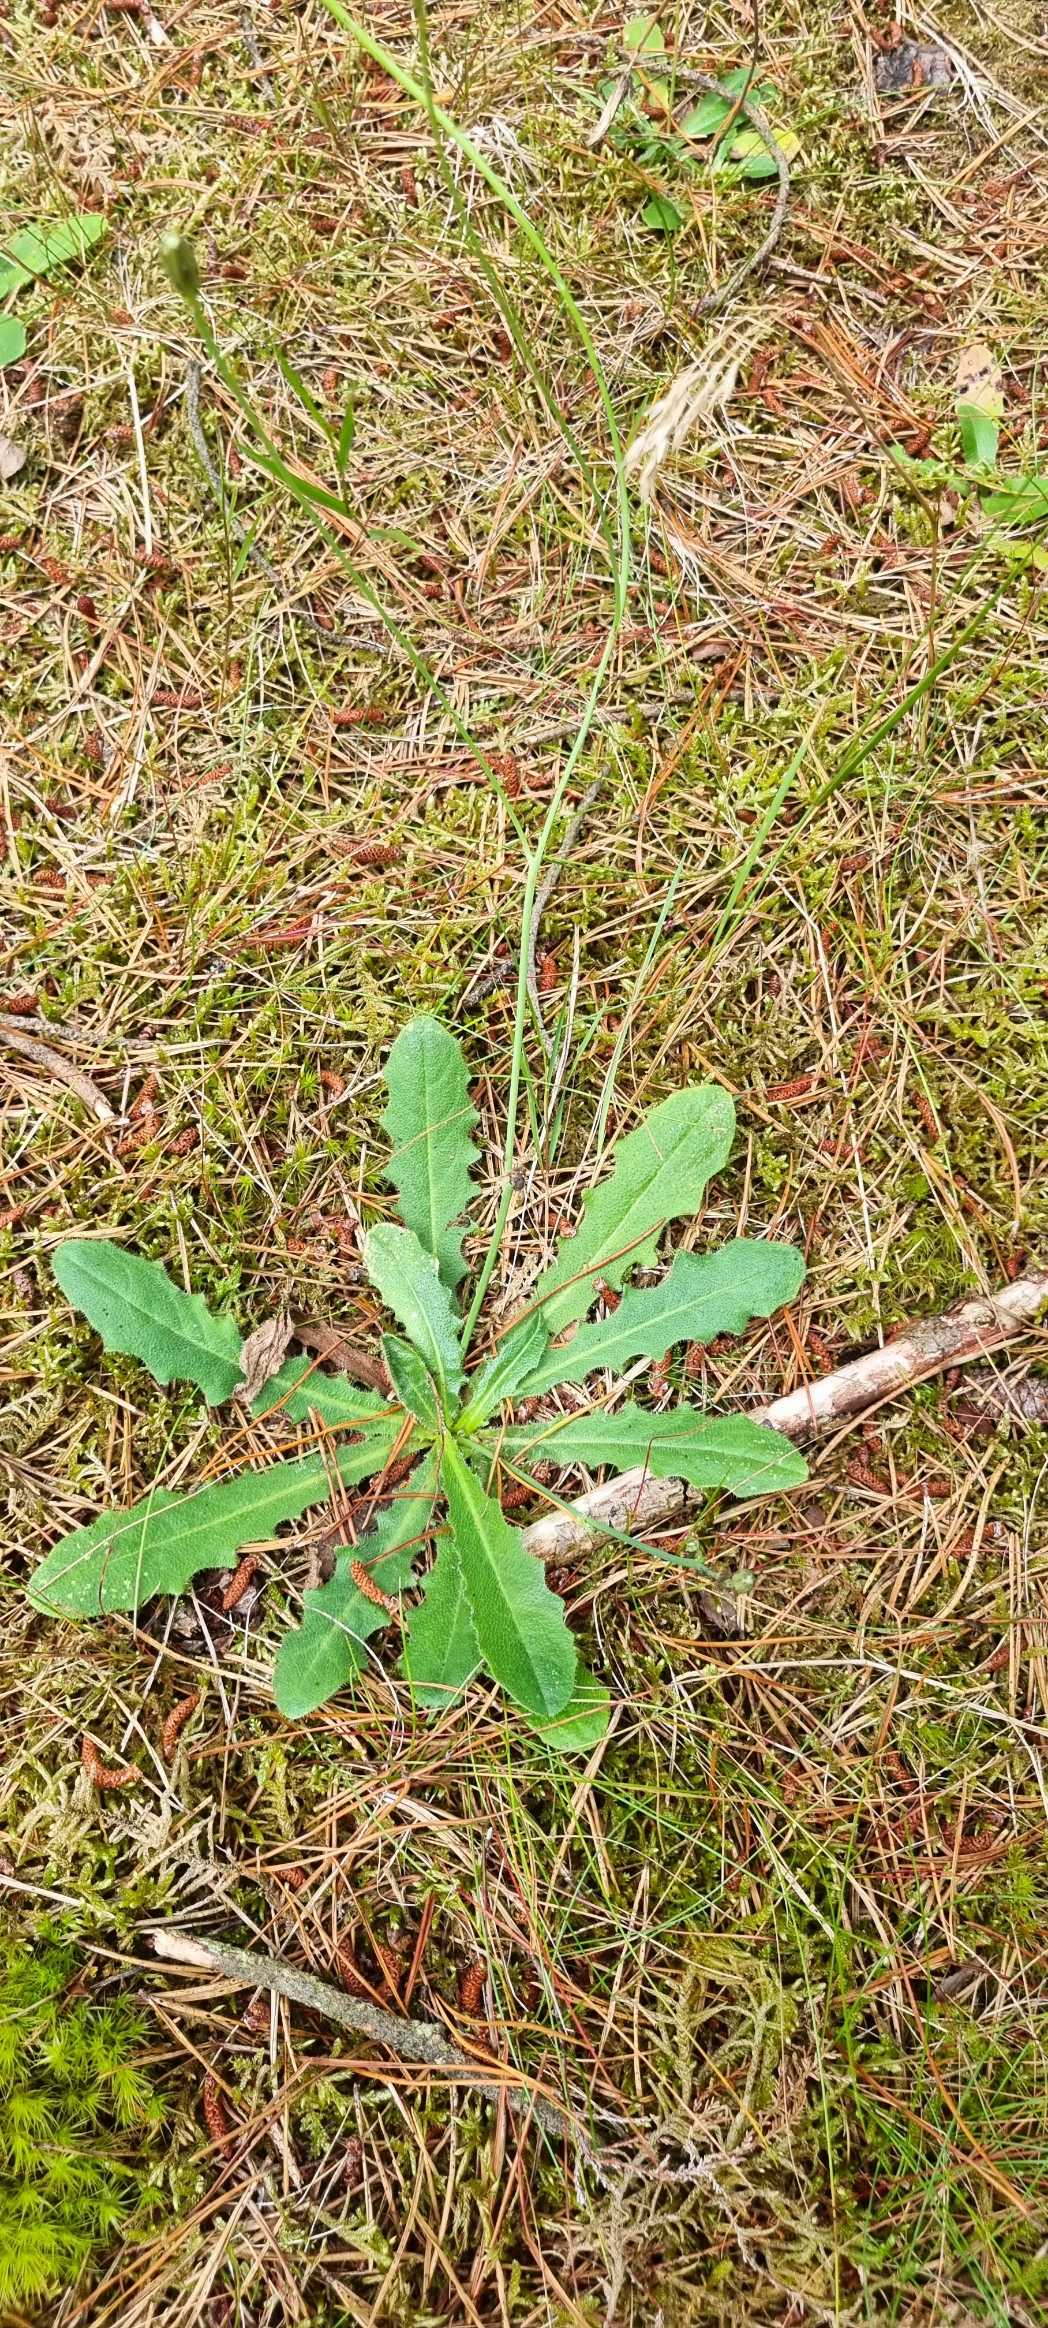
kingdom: Plantae
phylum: Tracheophyta
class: Magnoliopsida
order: Asterales
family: Asteraceae
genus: Hypochaeris
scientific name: Hypochaeris radicata
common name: Almindelig kongepen
